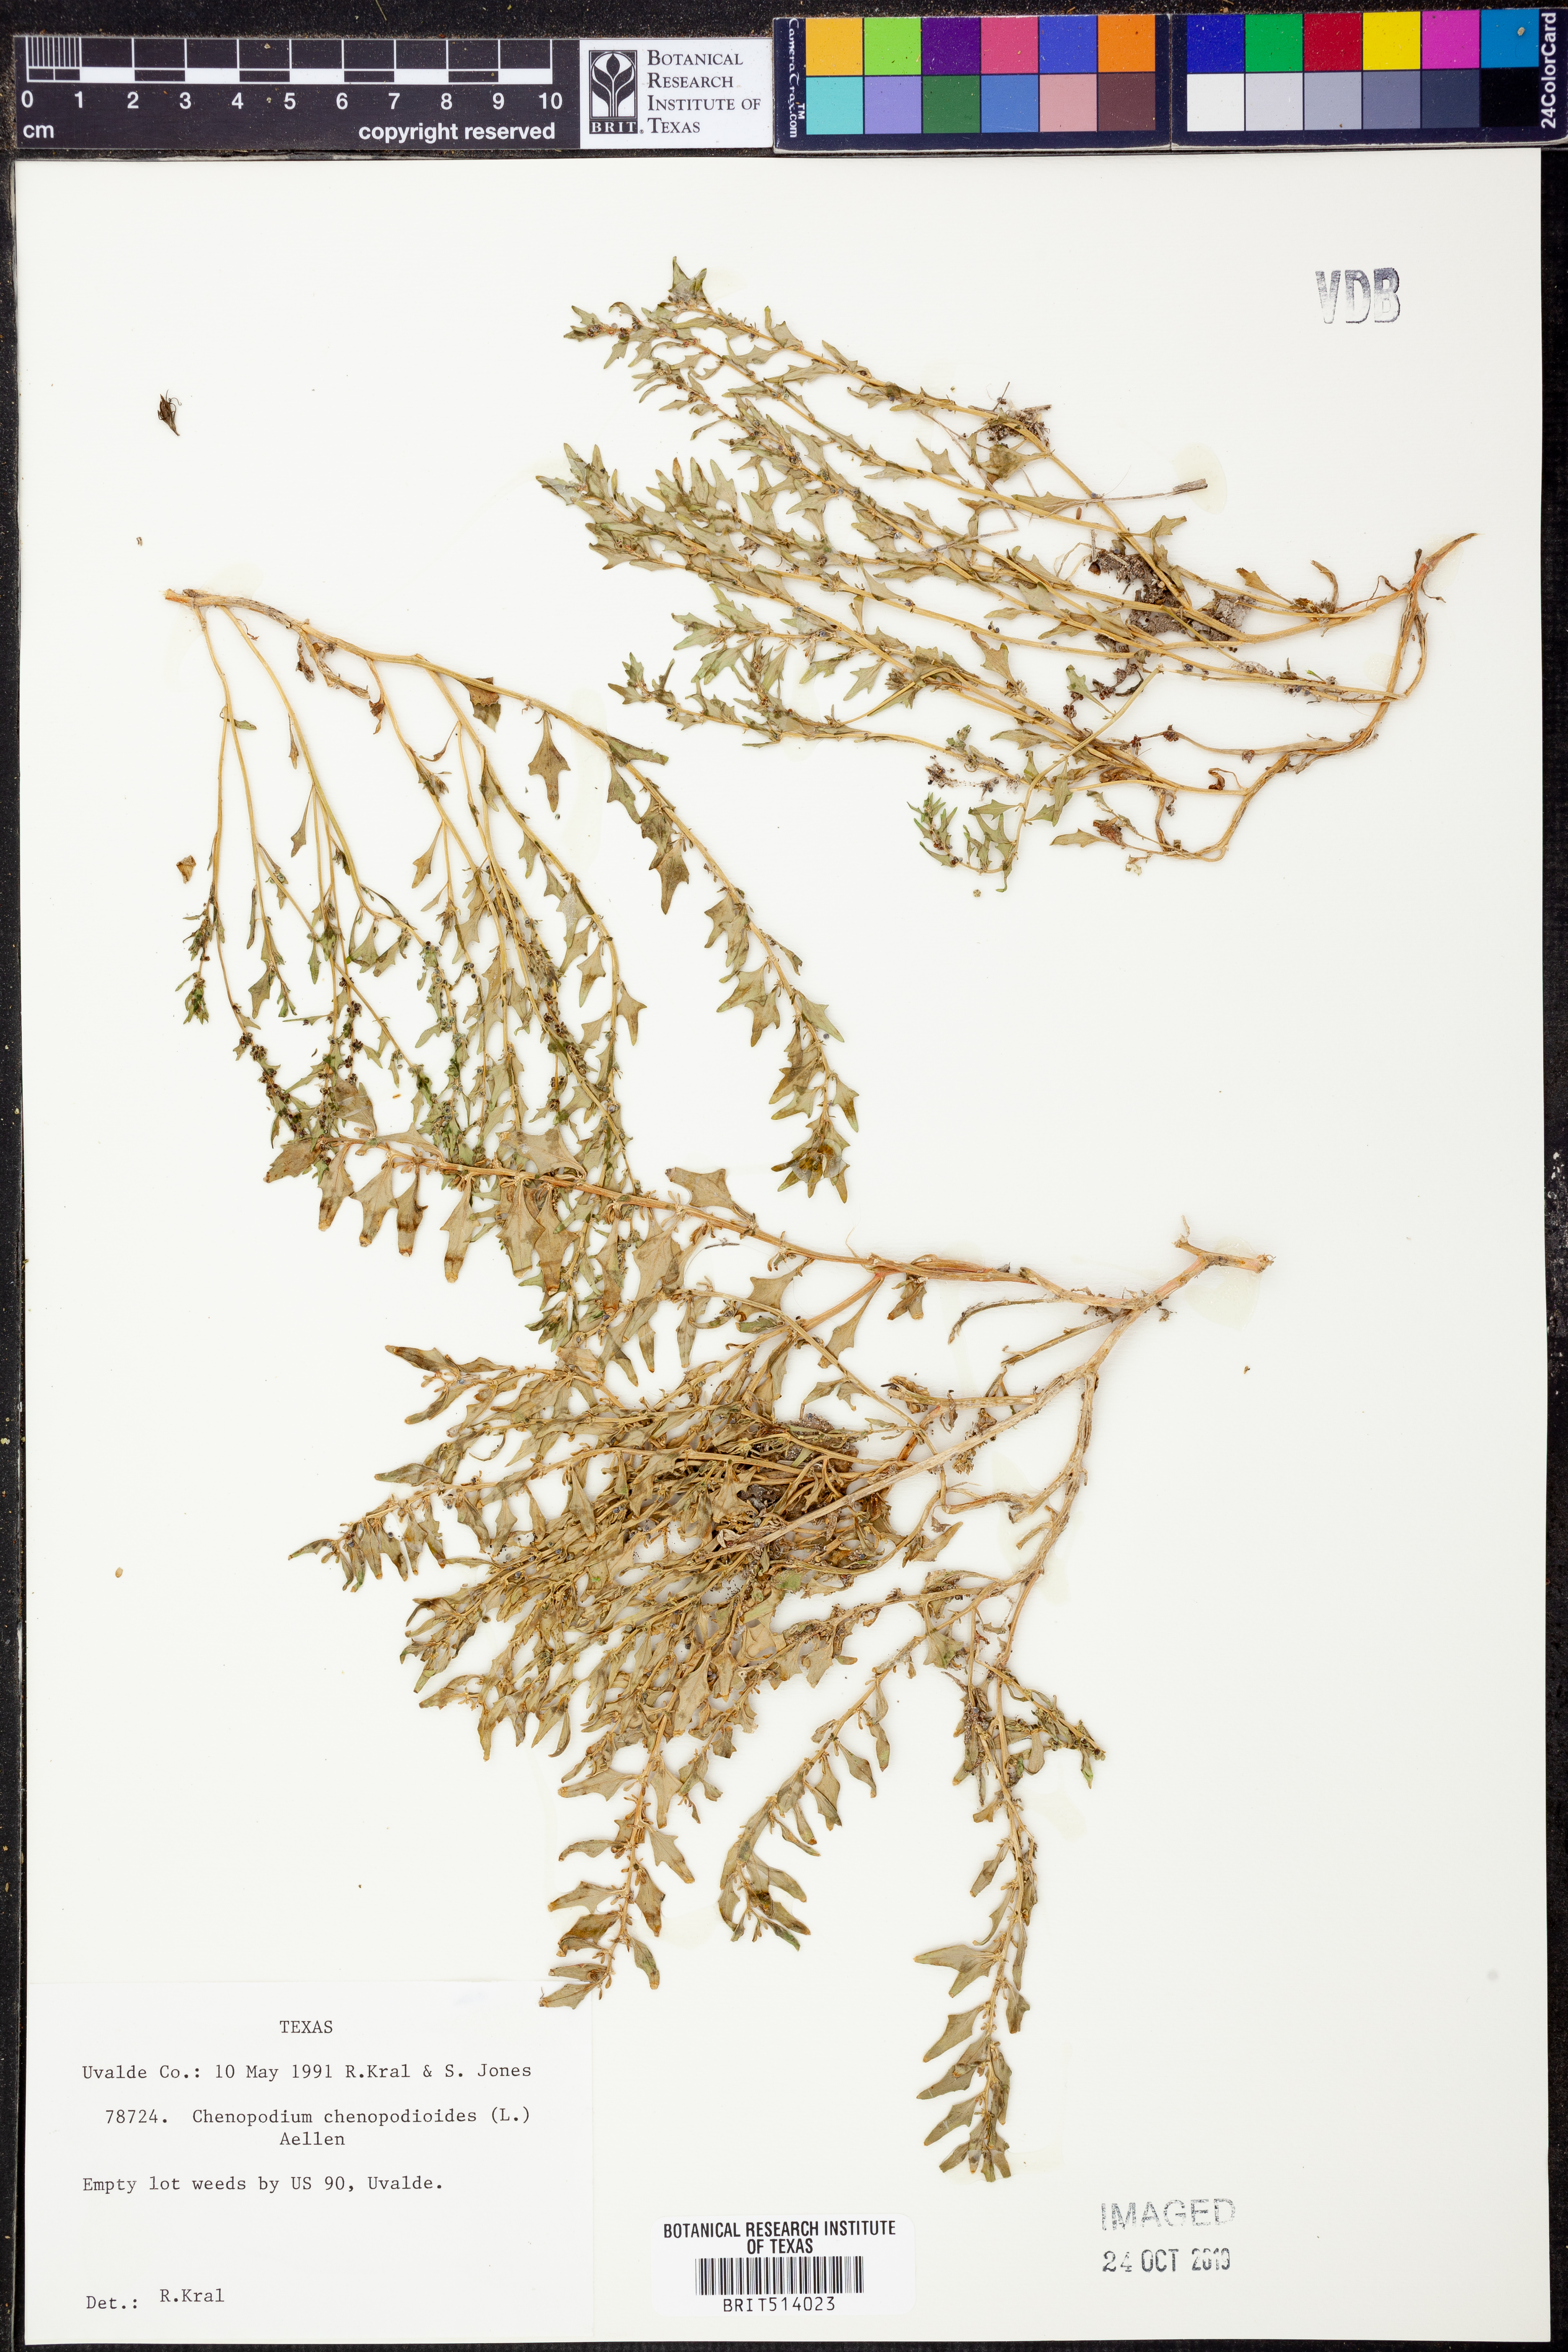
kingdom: Plantae
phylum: Tracheophyta
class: Magnoliopsida
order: Caryophyllales
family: Amaranthaceae
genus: Oxybasis
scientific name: Oxybasis chenopodioides
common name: Saltmarsh goosefoot
